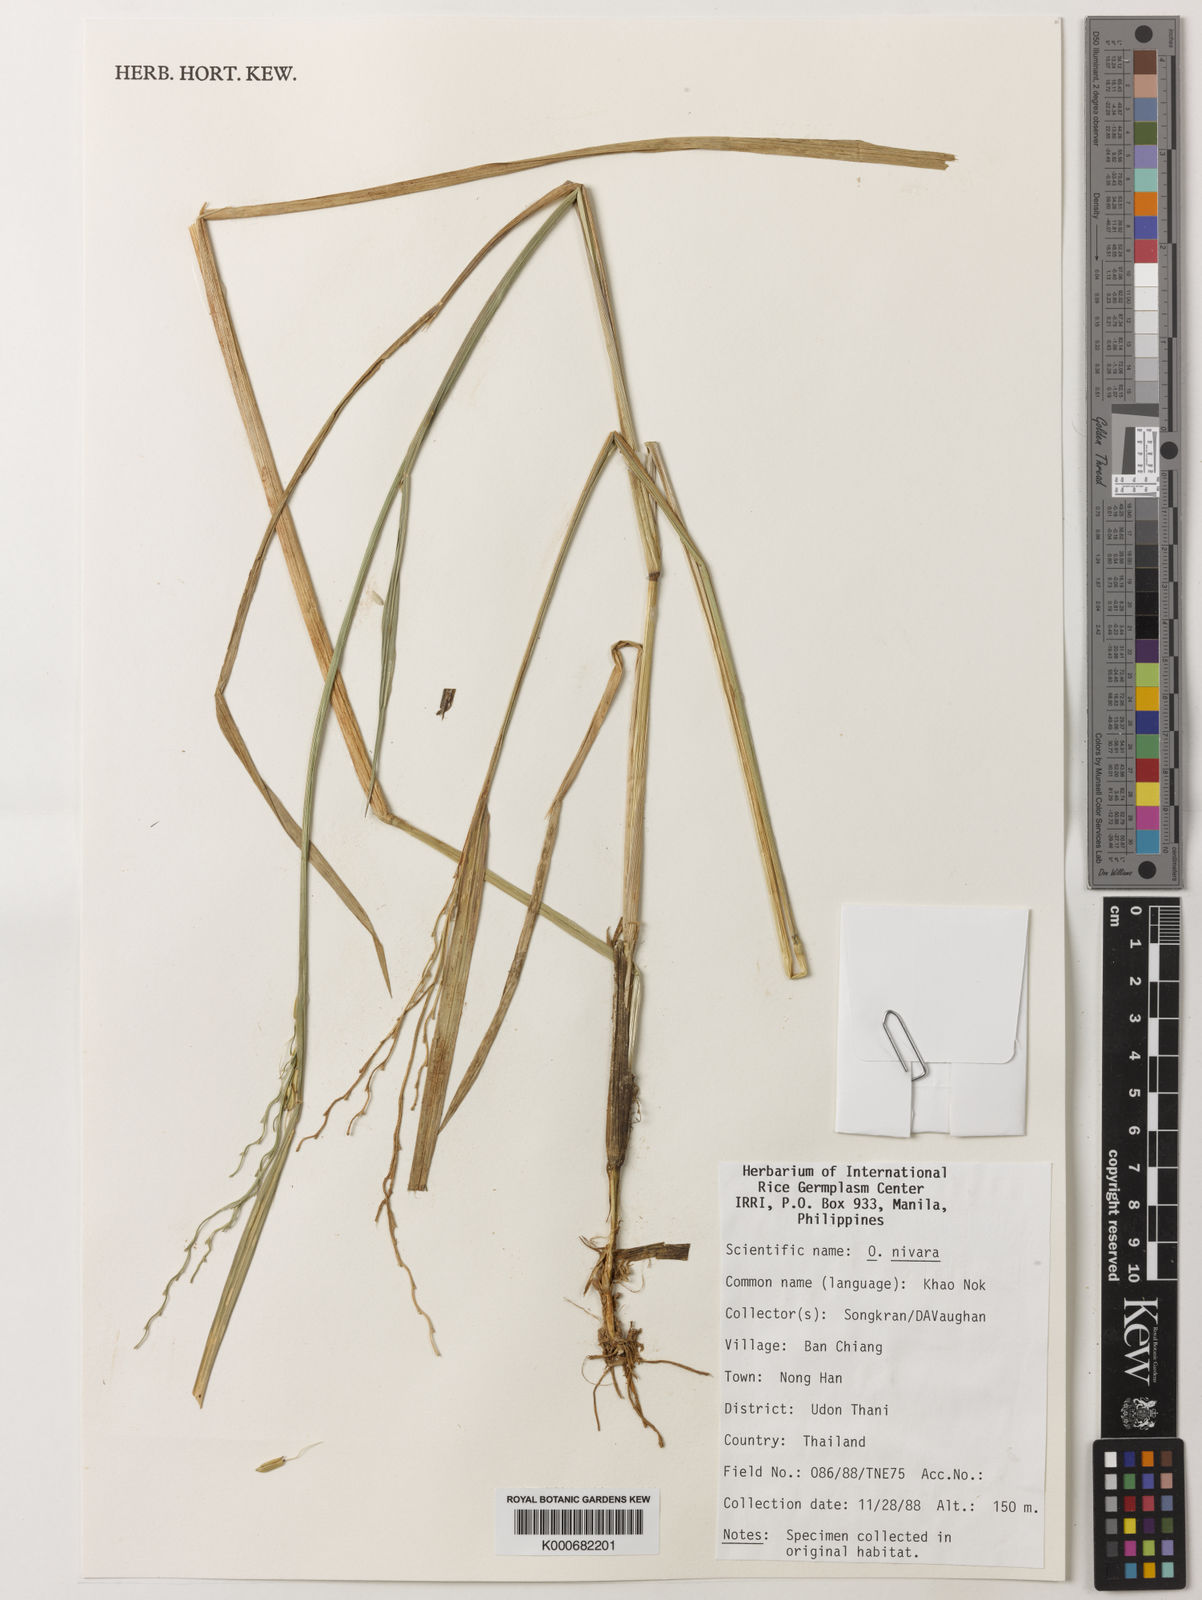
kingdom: Plantae
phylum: Tracheophyta
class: Liliopsida
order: Poales
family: Poaceae
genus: Oryza
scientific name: Oryza rufipogon
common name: Red rice
